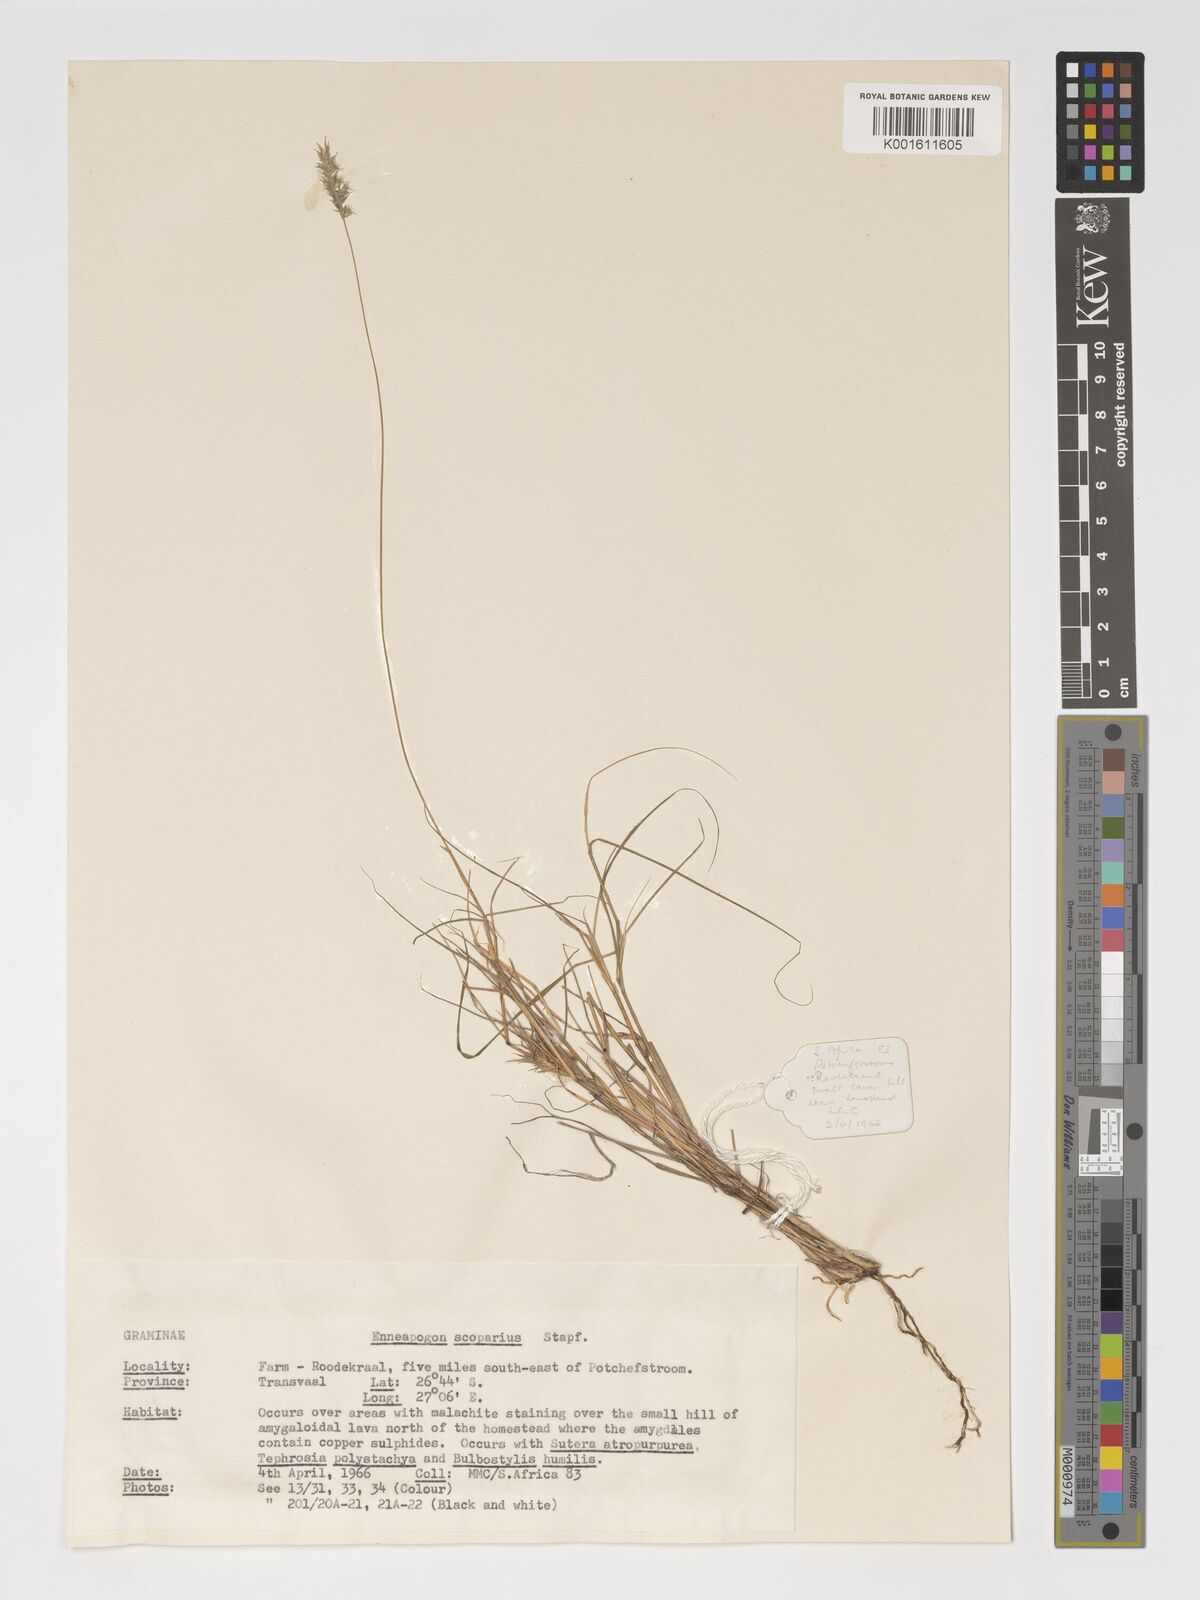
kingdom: Plantae
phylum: Tracheophyta
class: Liliopsida
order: Poales
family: Poaceae
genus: Enneapogon
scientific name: Enneapogon scoparius
